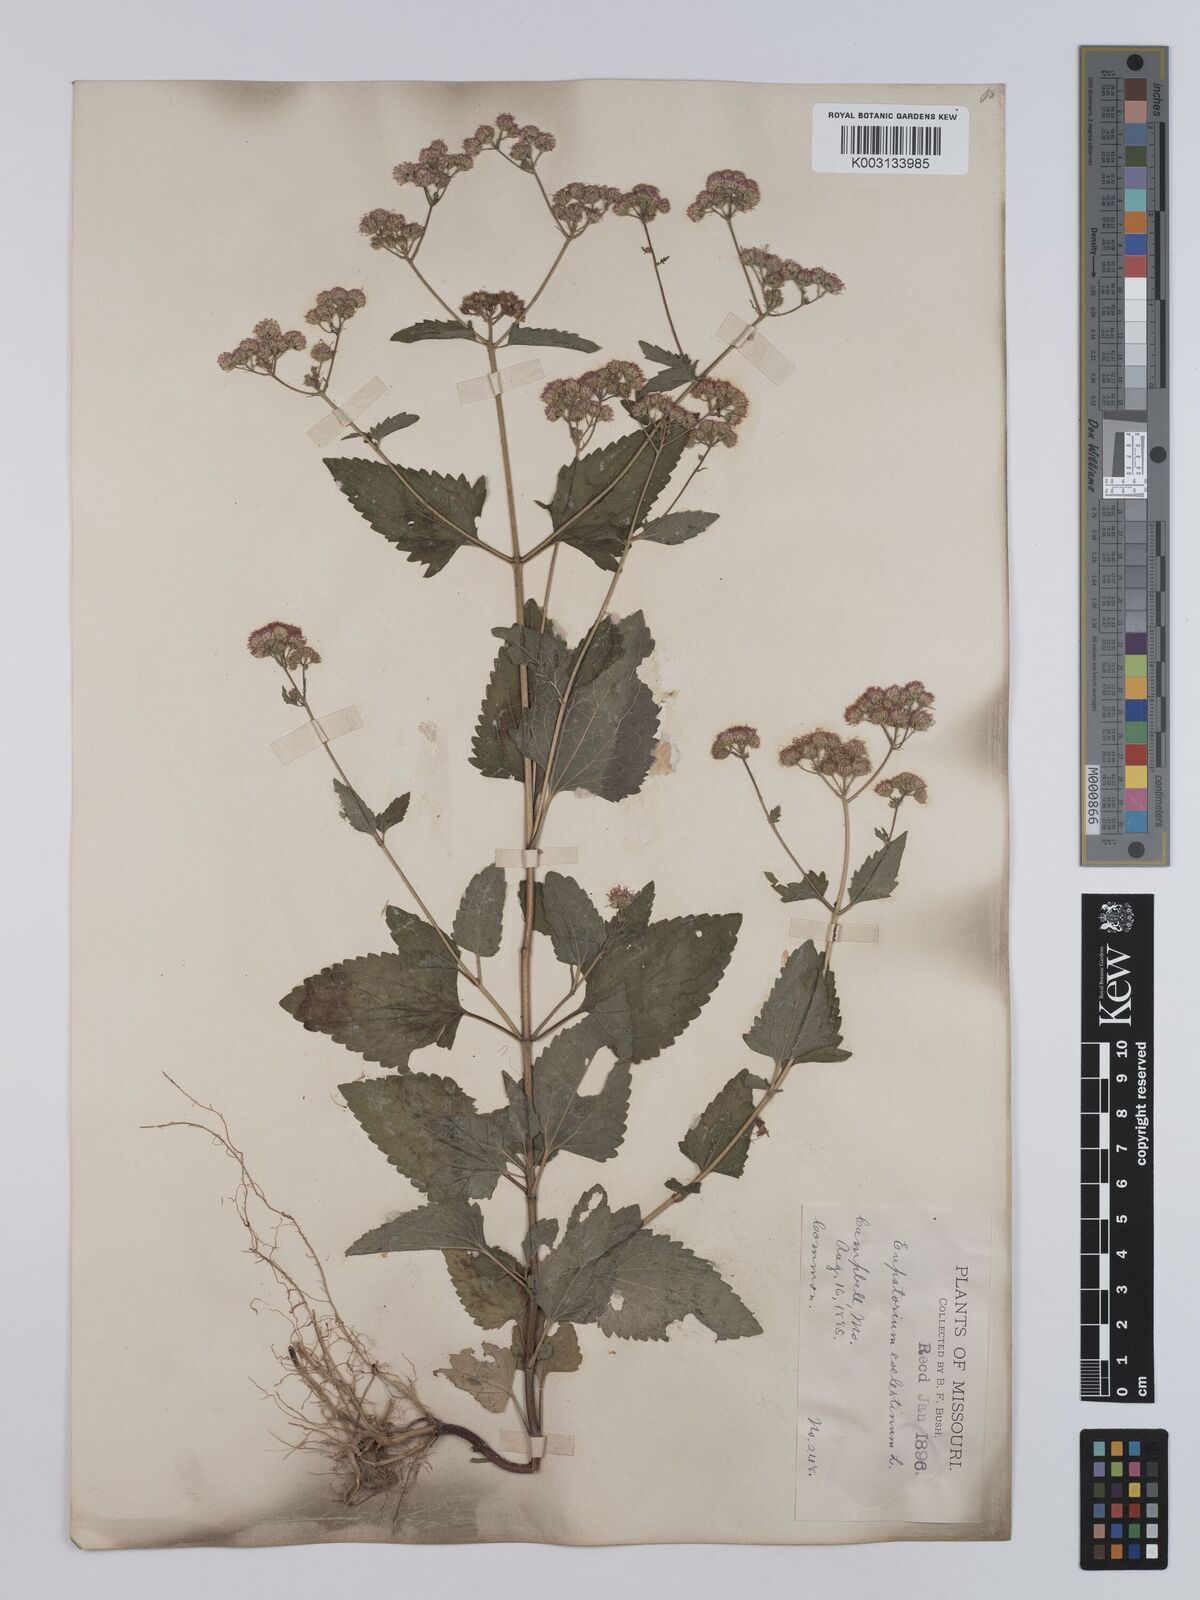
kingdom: Plantae
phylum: Tracheophyta
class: Magnoliopsida
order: Asterales
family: Asteraceae
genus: Conoclinium
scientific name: Conoclinium coelestinum
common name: Blue mistflower
